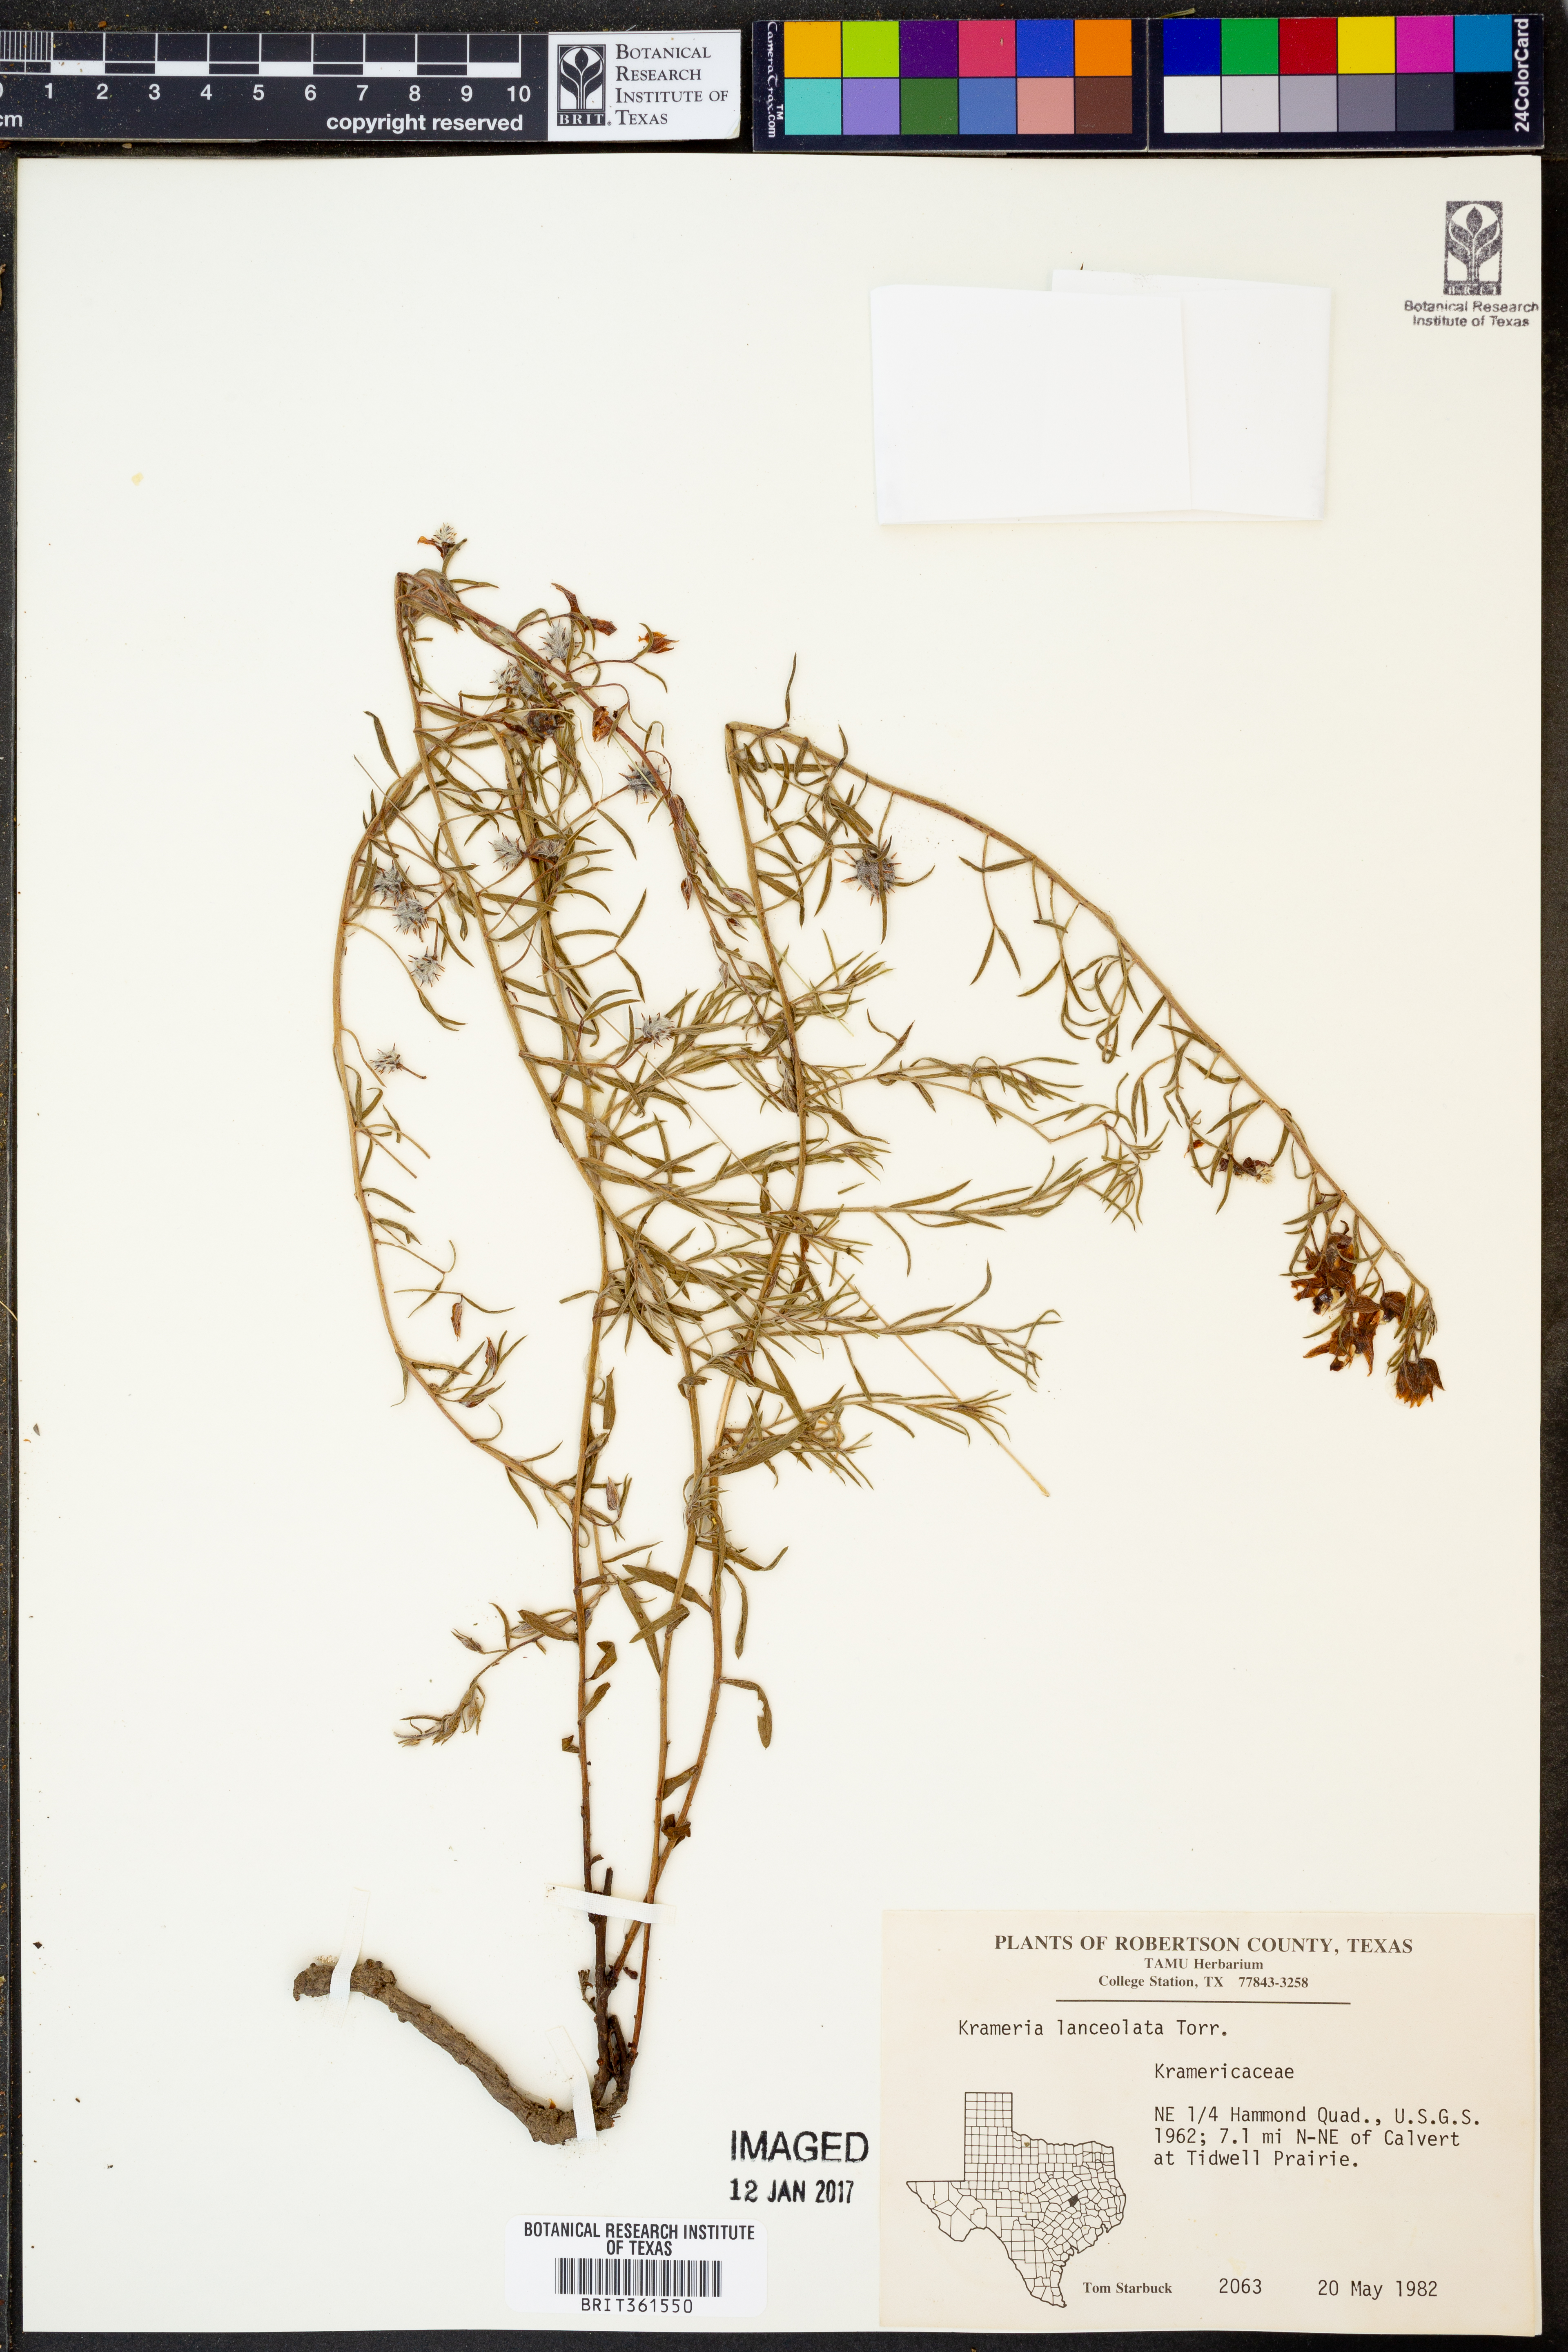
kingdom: Plantae
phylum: Tracheophyta
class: Magnoliopsida
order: Zygophyllales
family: Krameriaceae
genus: Krameria
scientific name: Krameria lanceolata
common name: Ratany
